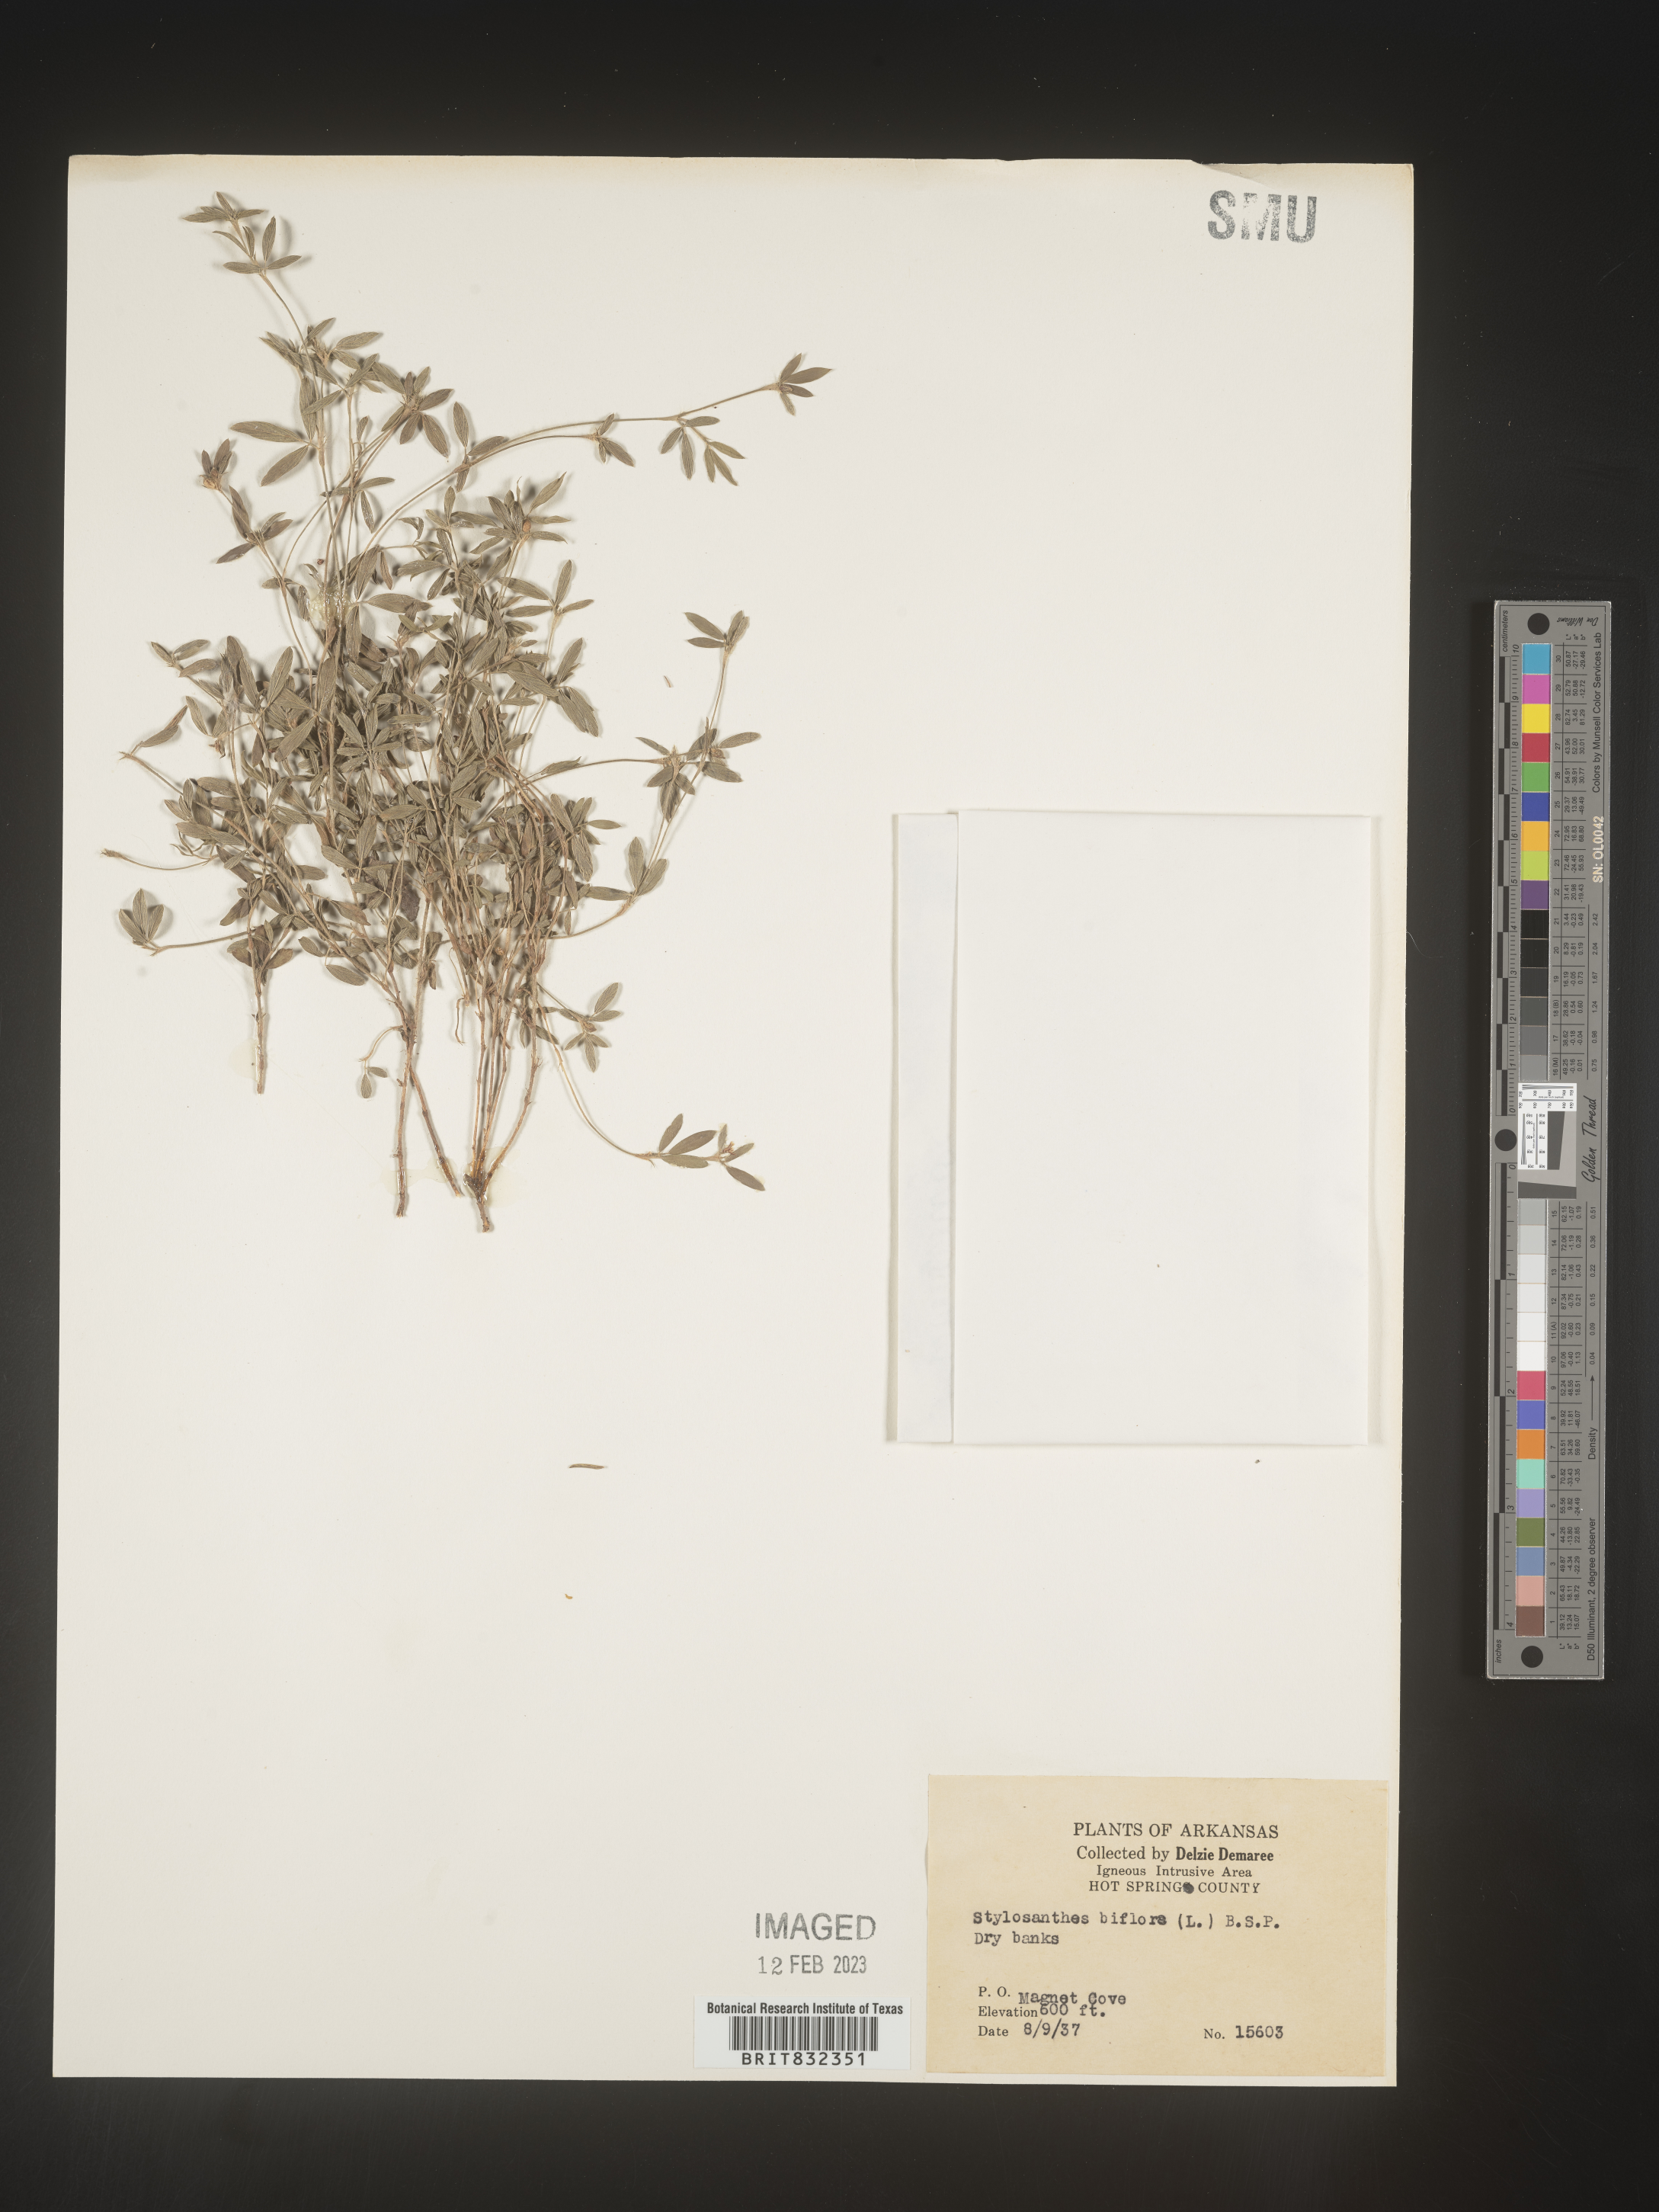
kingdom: Plantae
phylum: Tracheophyta
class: Magnoliopsida
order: Fabales
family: Fabaceae
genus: Stylosanthes
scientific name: Stylosanthes biflora
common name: Two-flower pencil-flower
